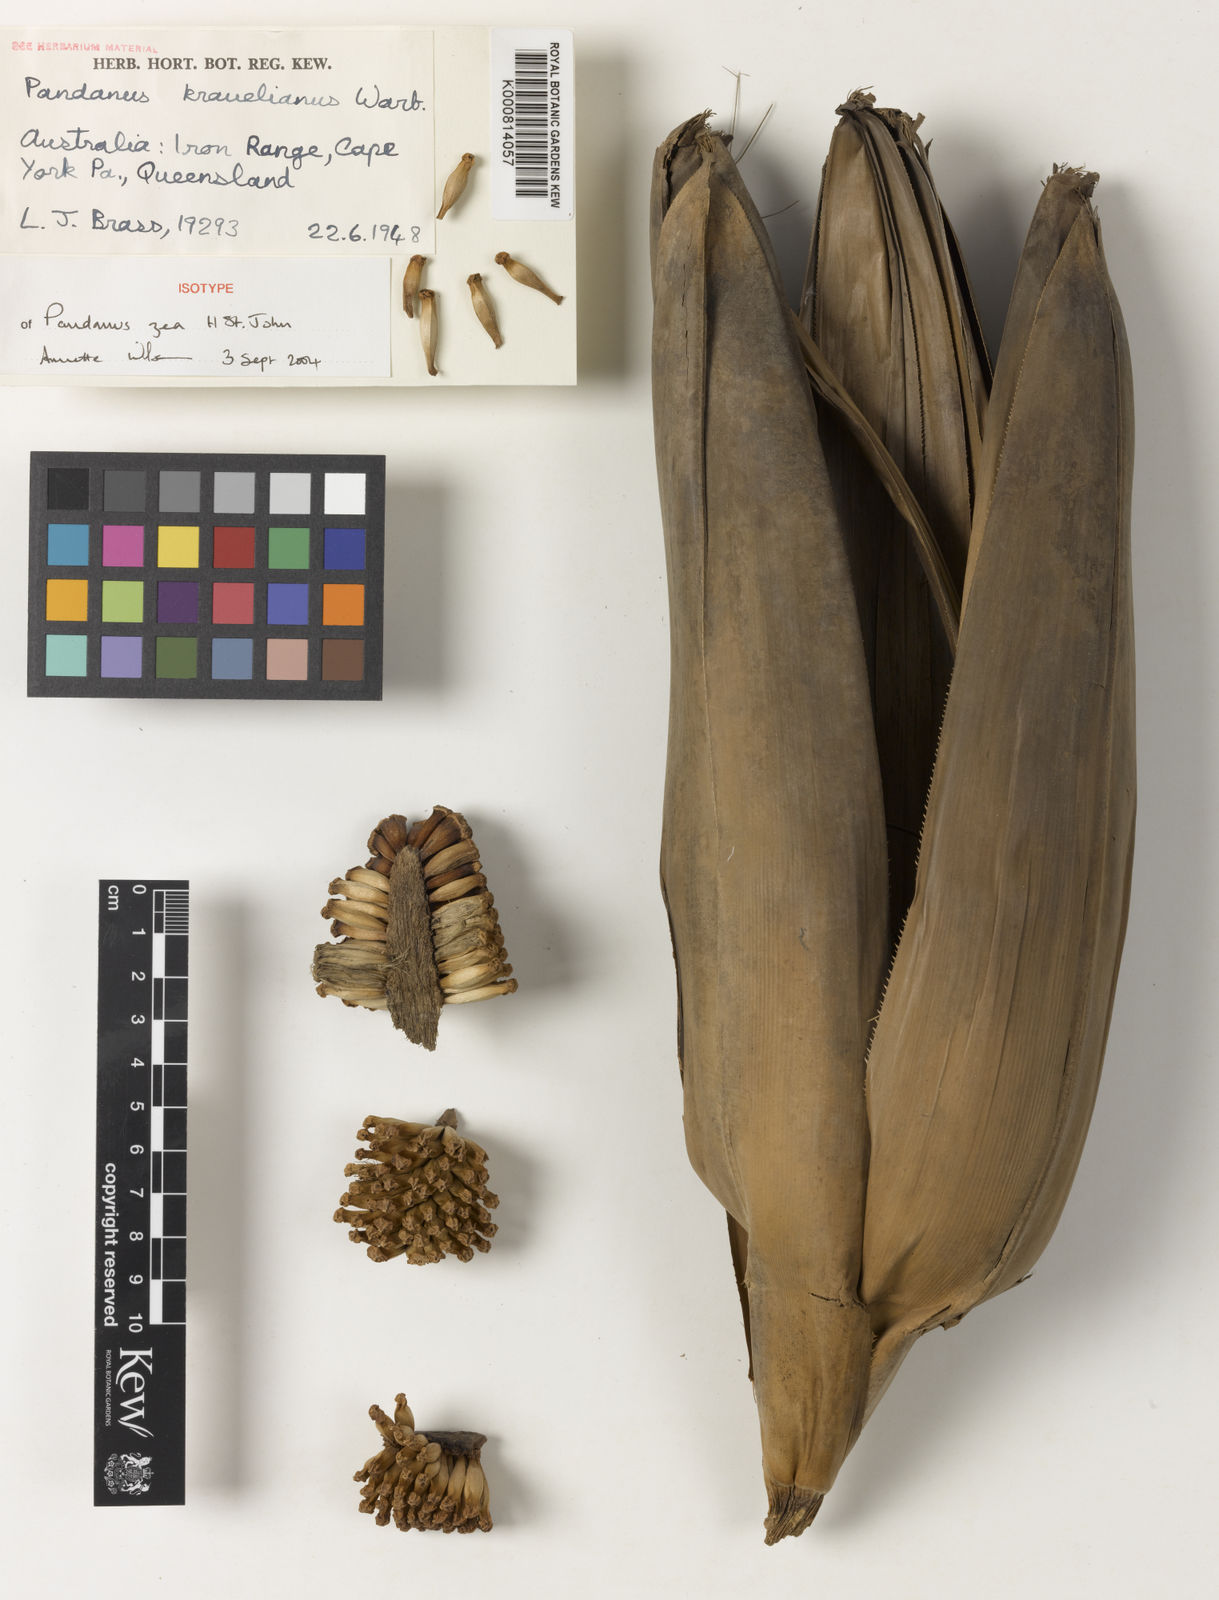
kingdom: Plantae
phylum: Tracheophyta
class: Liliopsida
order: Pandanales
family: Pandanaceae
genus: Pandanus
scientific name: Pandanus krauelianus
